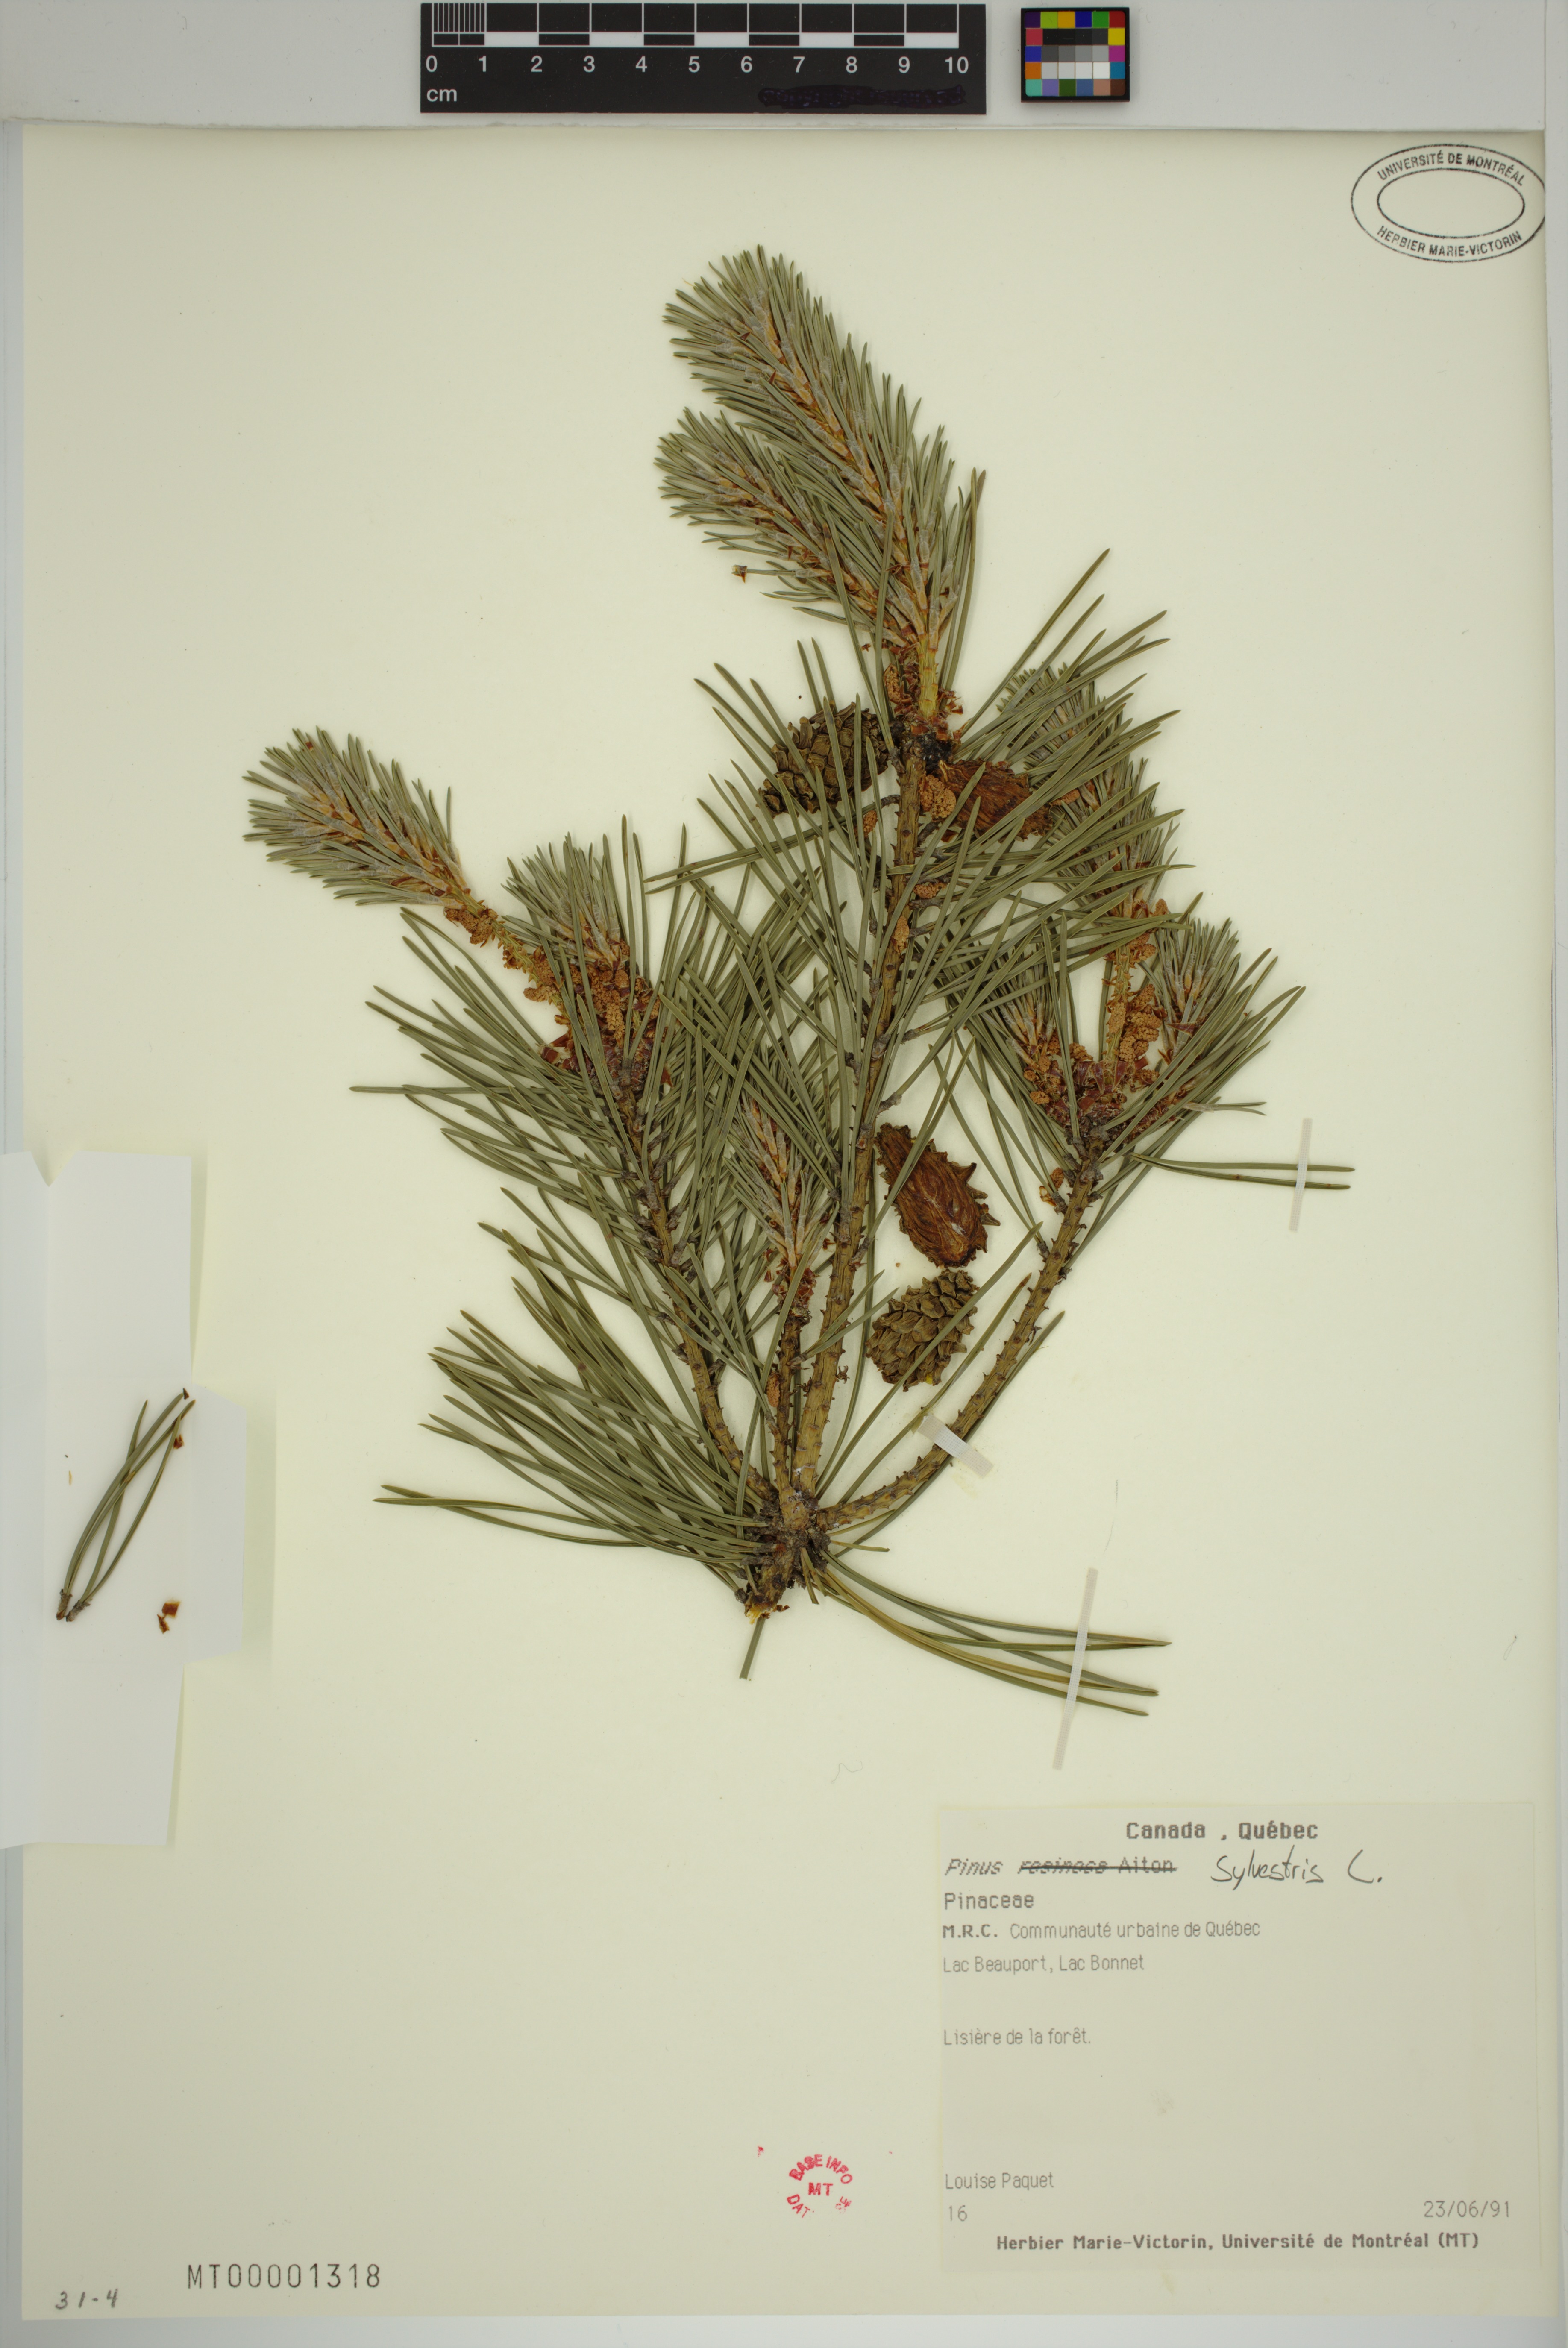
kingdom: Plantae
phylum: Tracheophyta
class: Pinopsida
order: Pinales
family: Pinaceae
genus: Pinus
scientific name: Pinus sylvestris
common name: Scots pine
